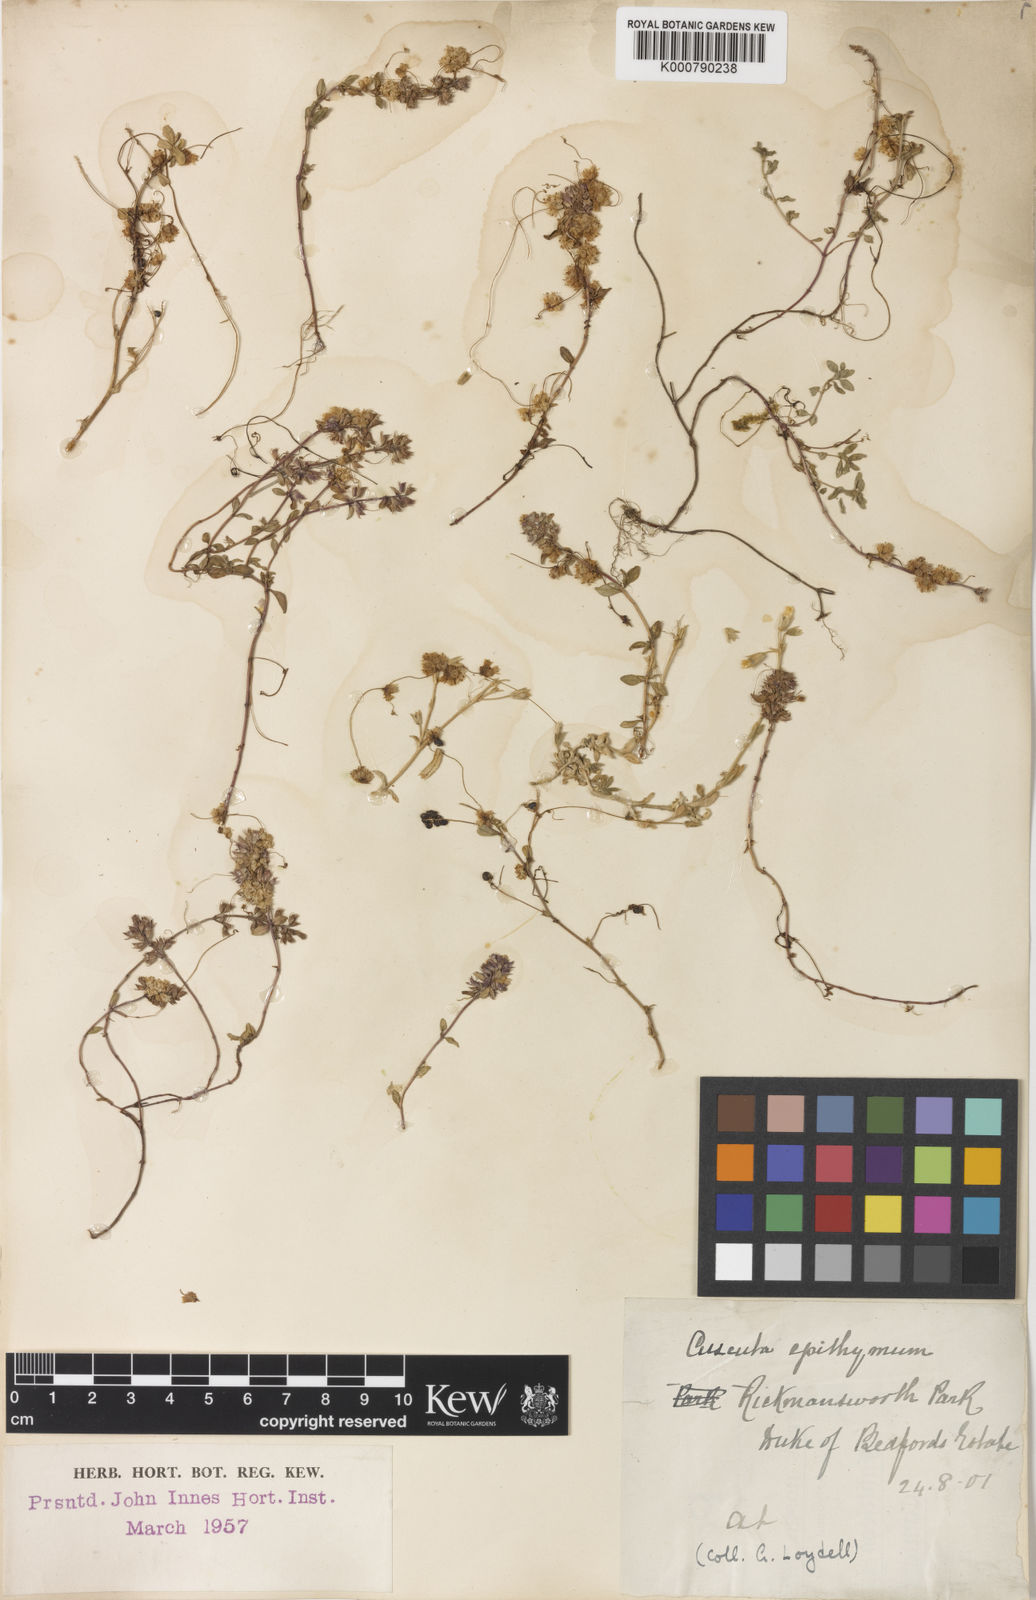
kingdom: Plantae
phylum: Tracheophyta
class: Magnoliopsida
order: Solanales
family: Convolvulaceae
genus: Cuscuta
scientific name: Cuscuta epithymum
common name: Clover dodder
